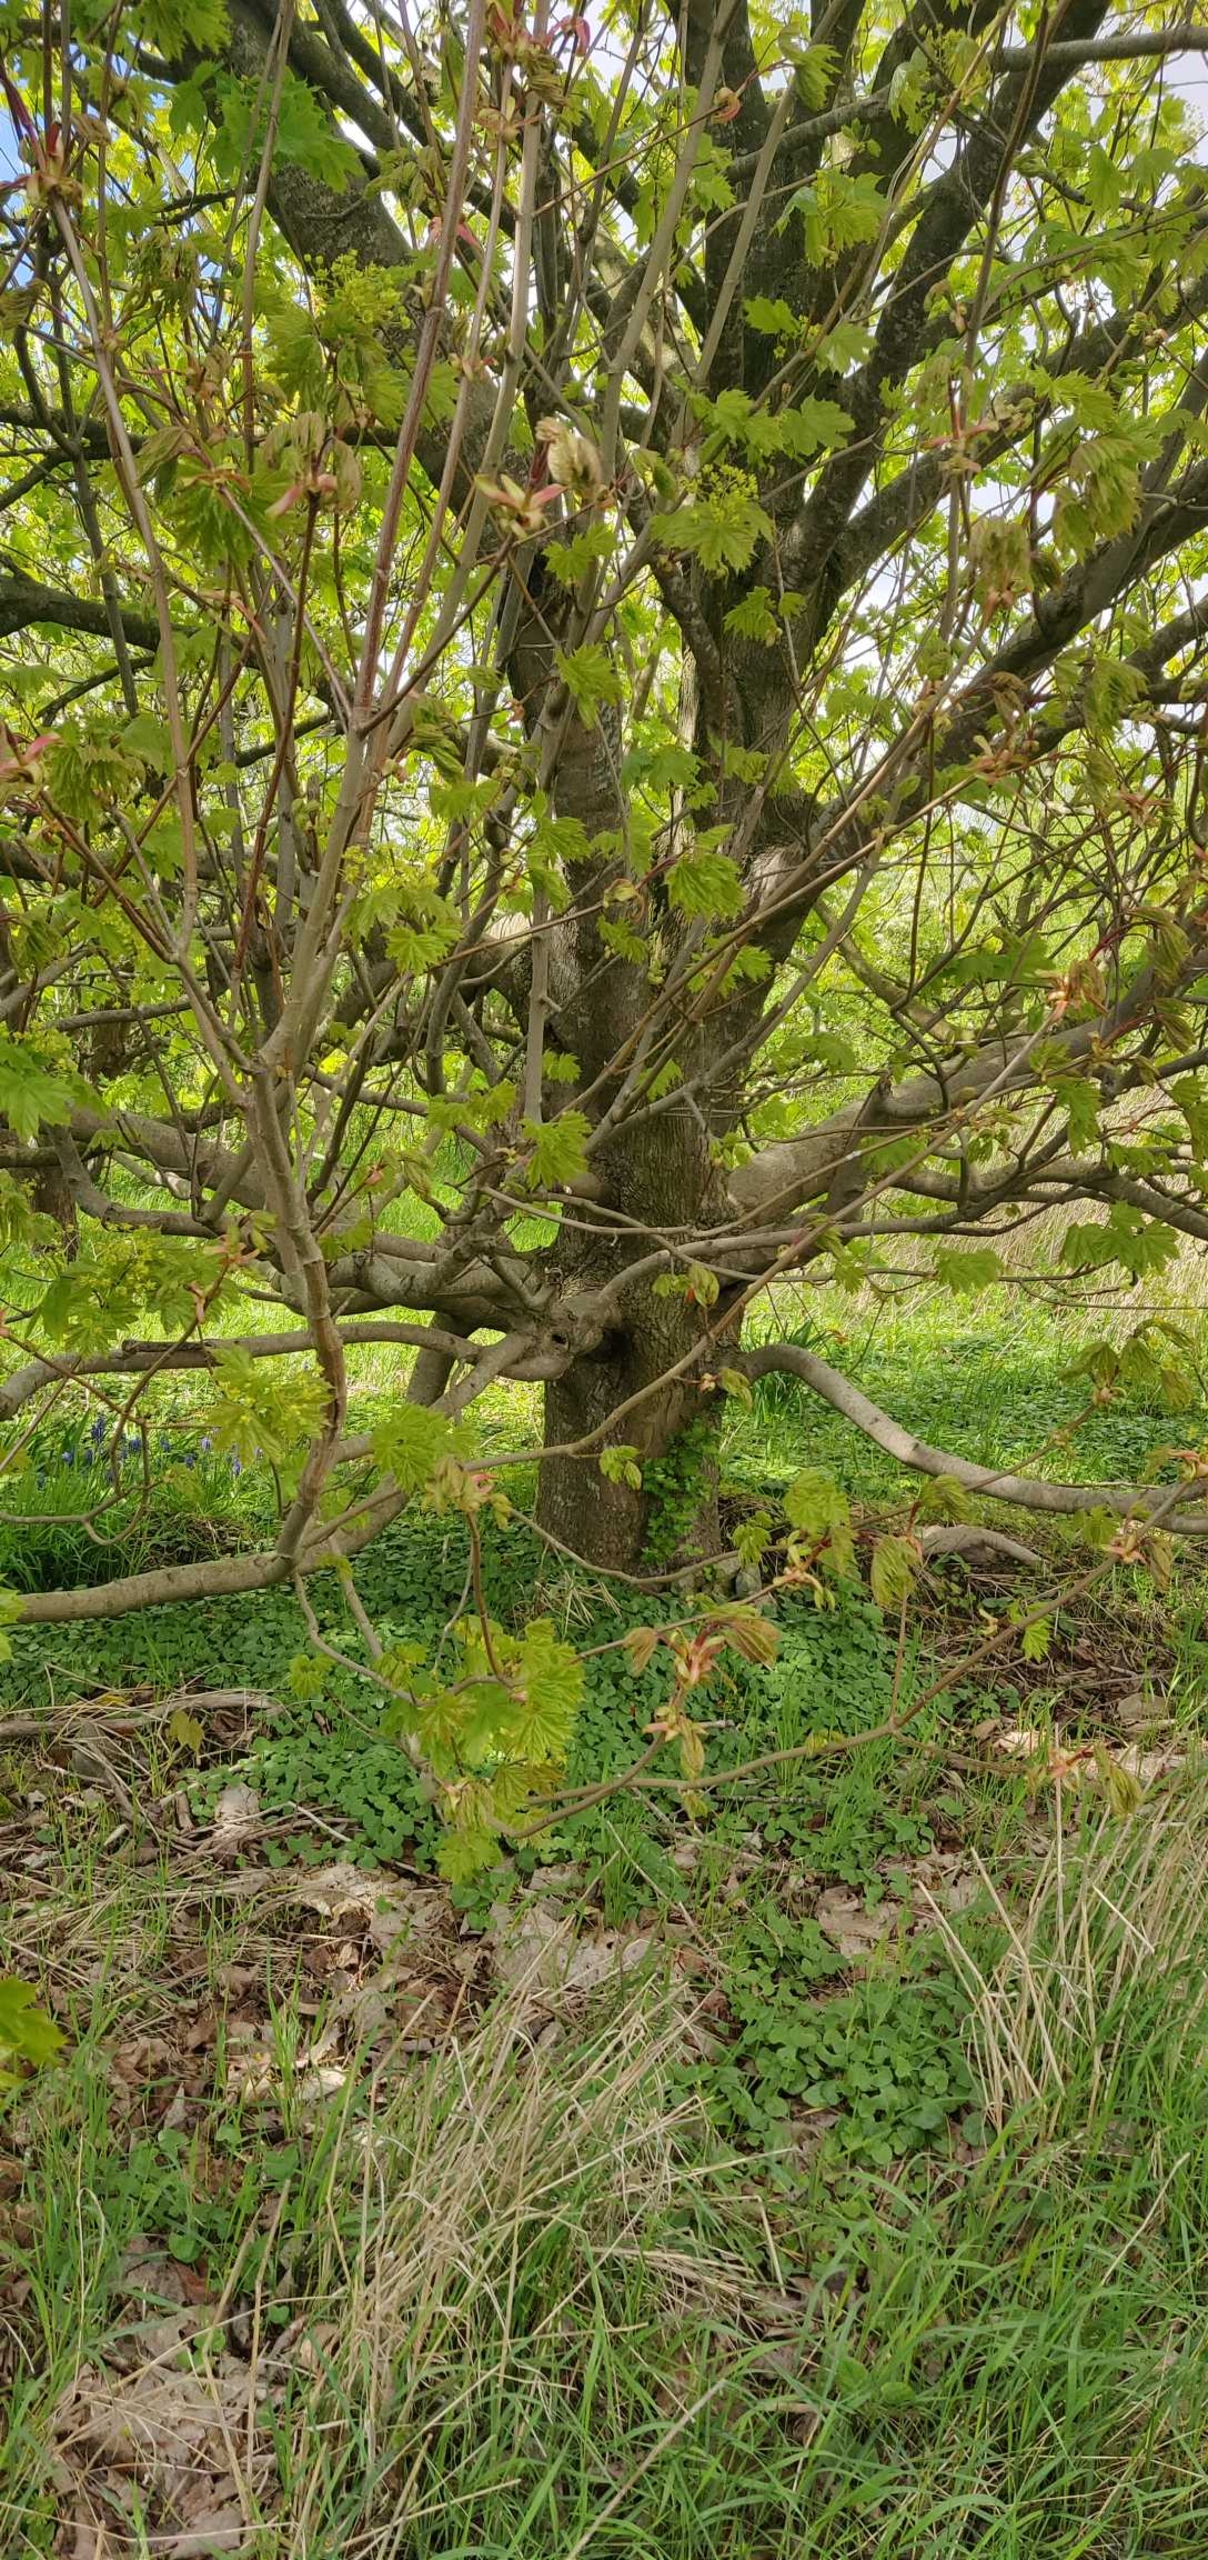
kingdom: Plantae
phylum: Tracheophyta
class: Magnoliopsida
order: Sapindales
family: Sapindaceae
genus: Acer
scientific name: Acer platanoides
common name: Spids-løn
